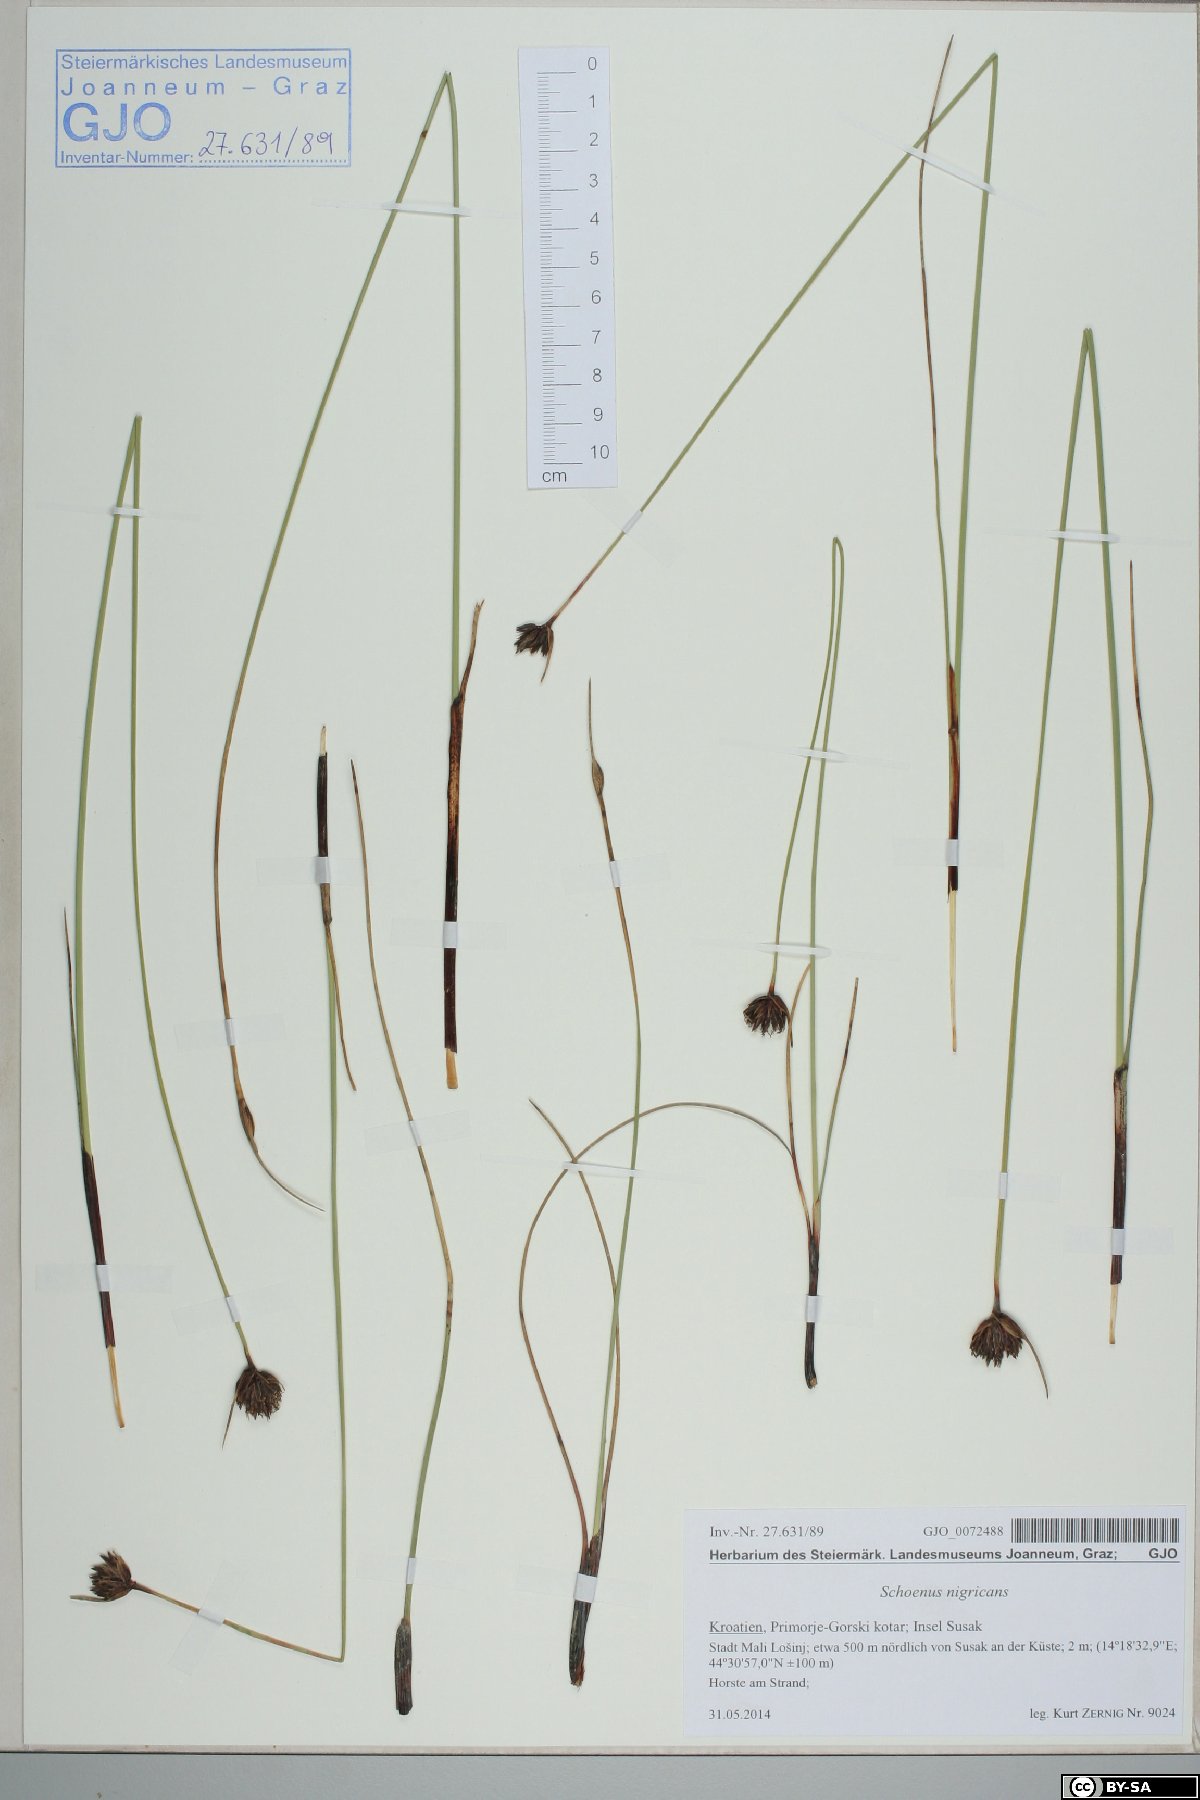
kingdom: Plantae
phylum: Tracheophyta
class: Liliopsida
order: Poales
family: Cyperaceae
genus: Schoenus
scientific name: Schoenus nigricans
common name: Black bog-rush
